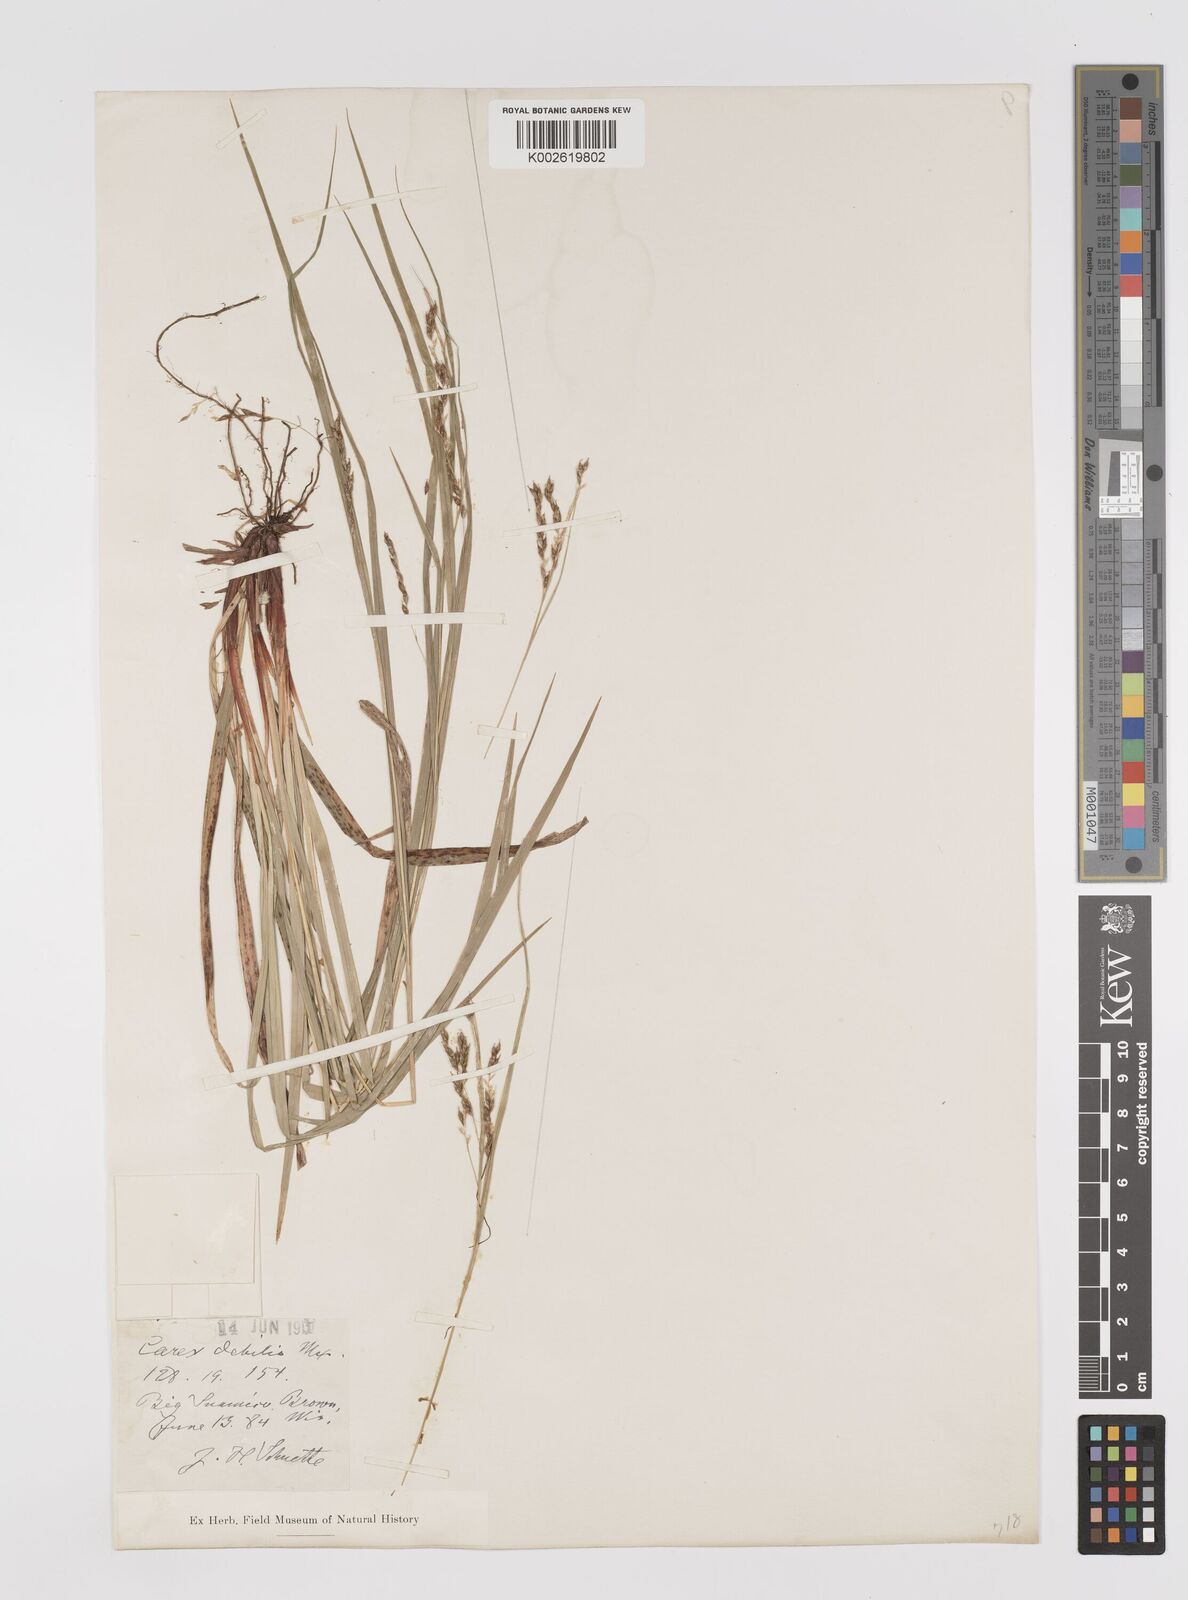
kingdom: Plantae
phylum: Tracheophyta
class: Liliopsida
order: Poales
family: Cyperaceae
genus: Carex
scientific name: Carex debilis
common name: White-edge sedge
